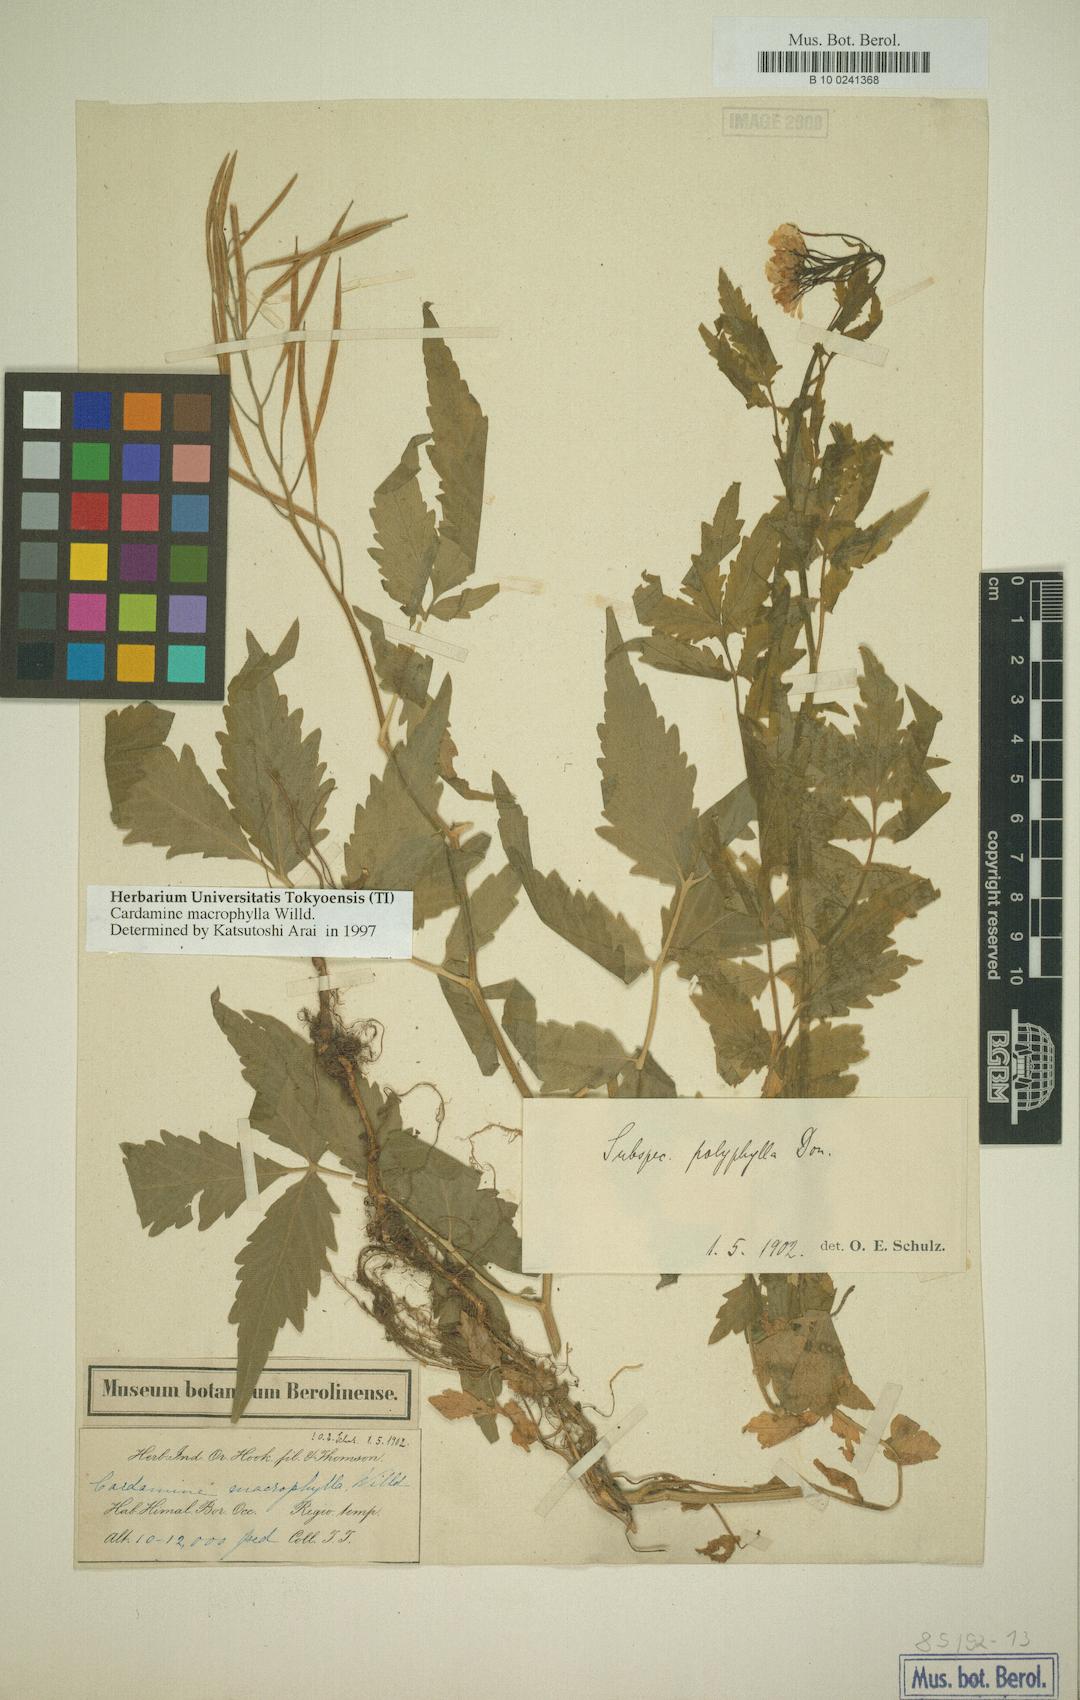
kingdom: Plantae
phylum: Tracheophyta
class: Magnoliopsida
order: Brassicales
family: Brassicaceae
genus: Cardamine
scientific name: Cardamine macrophylla
